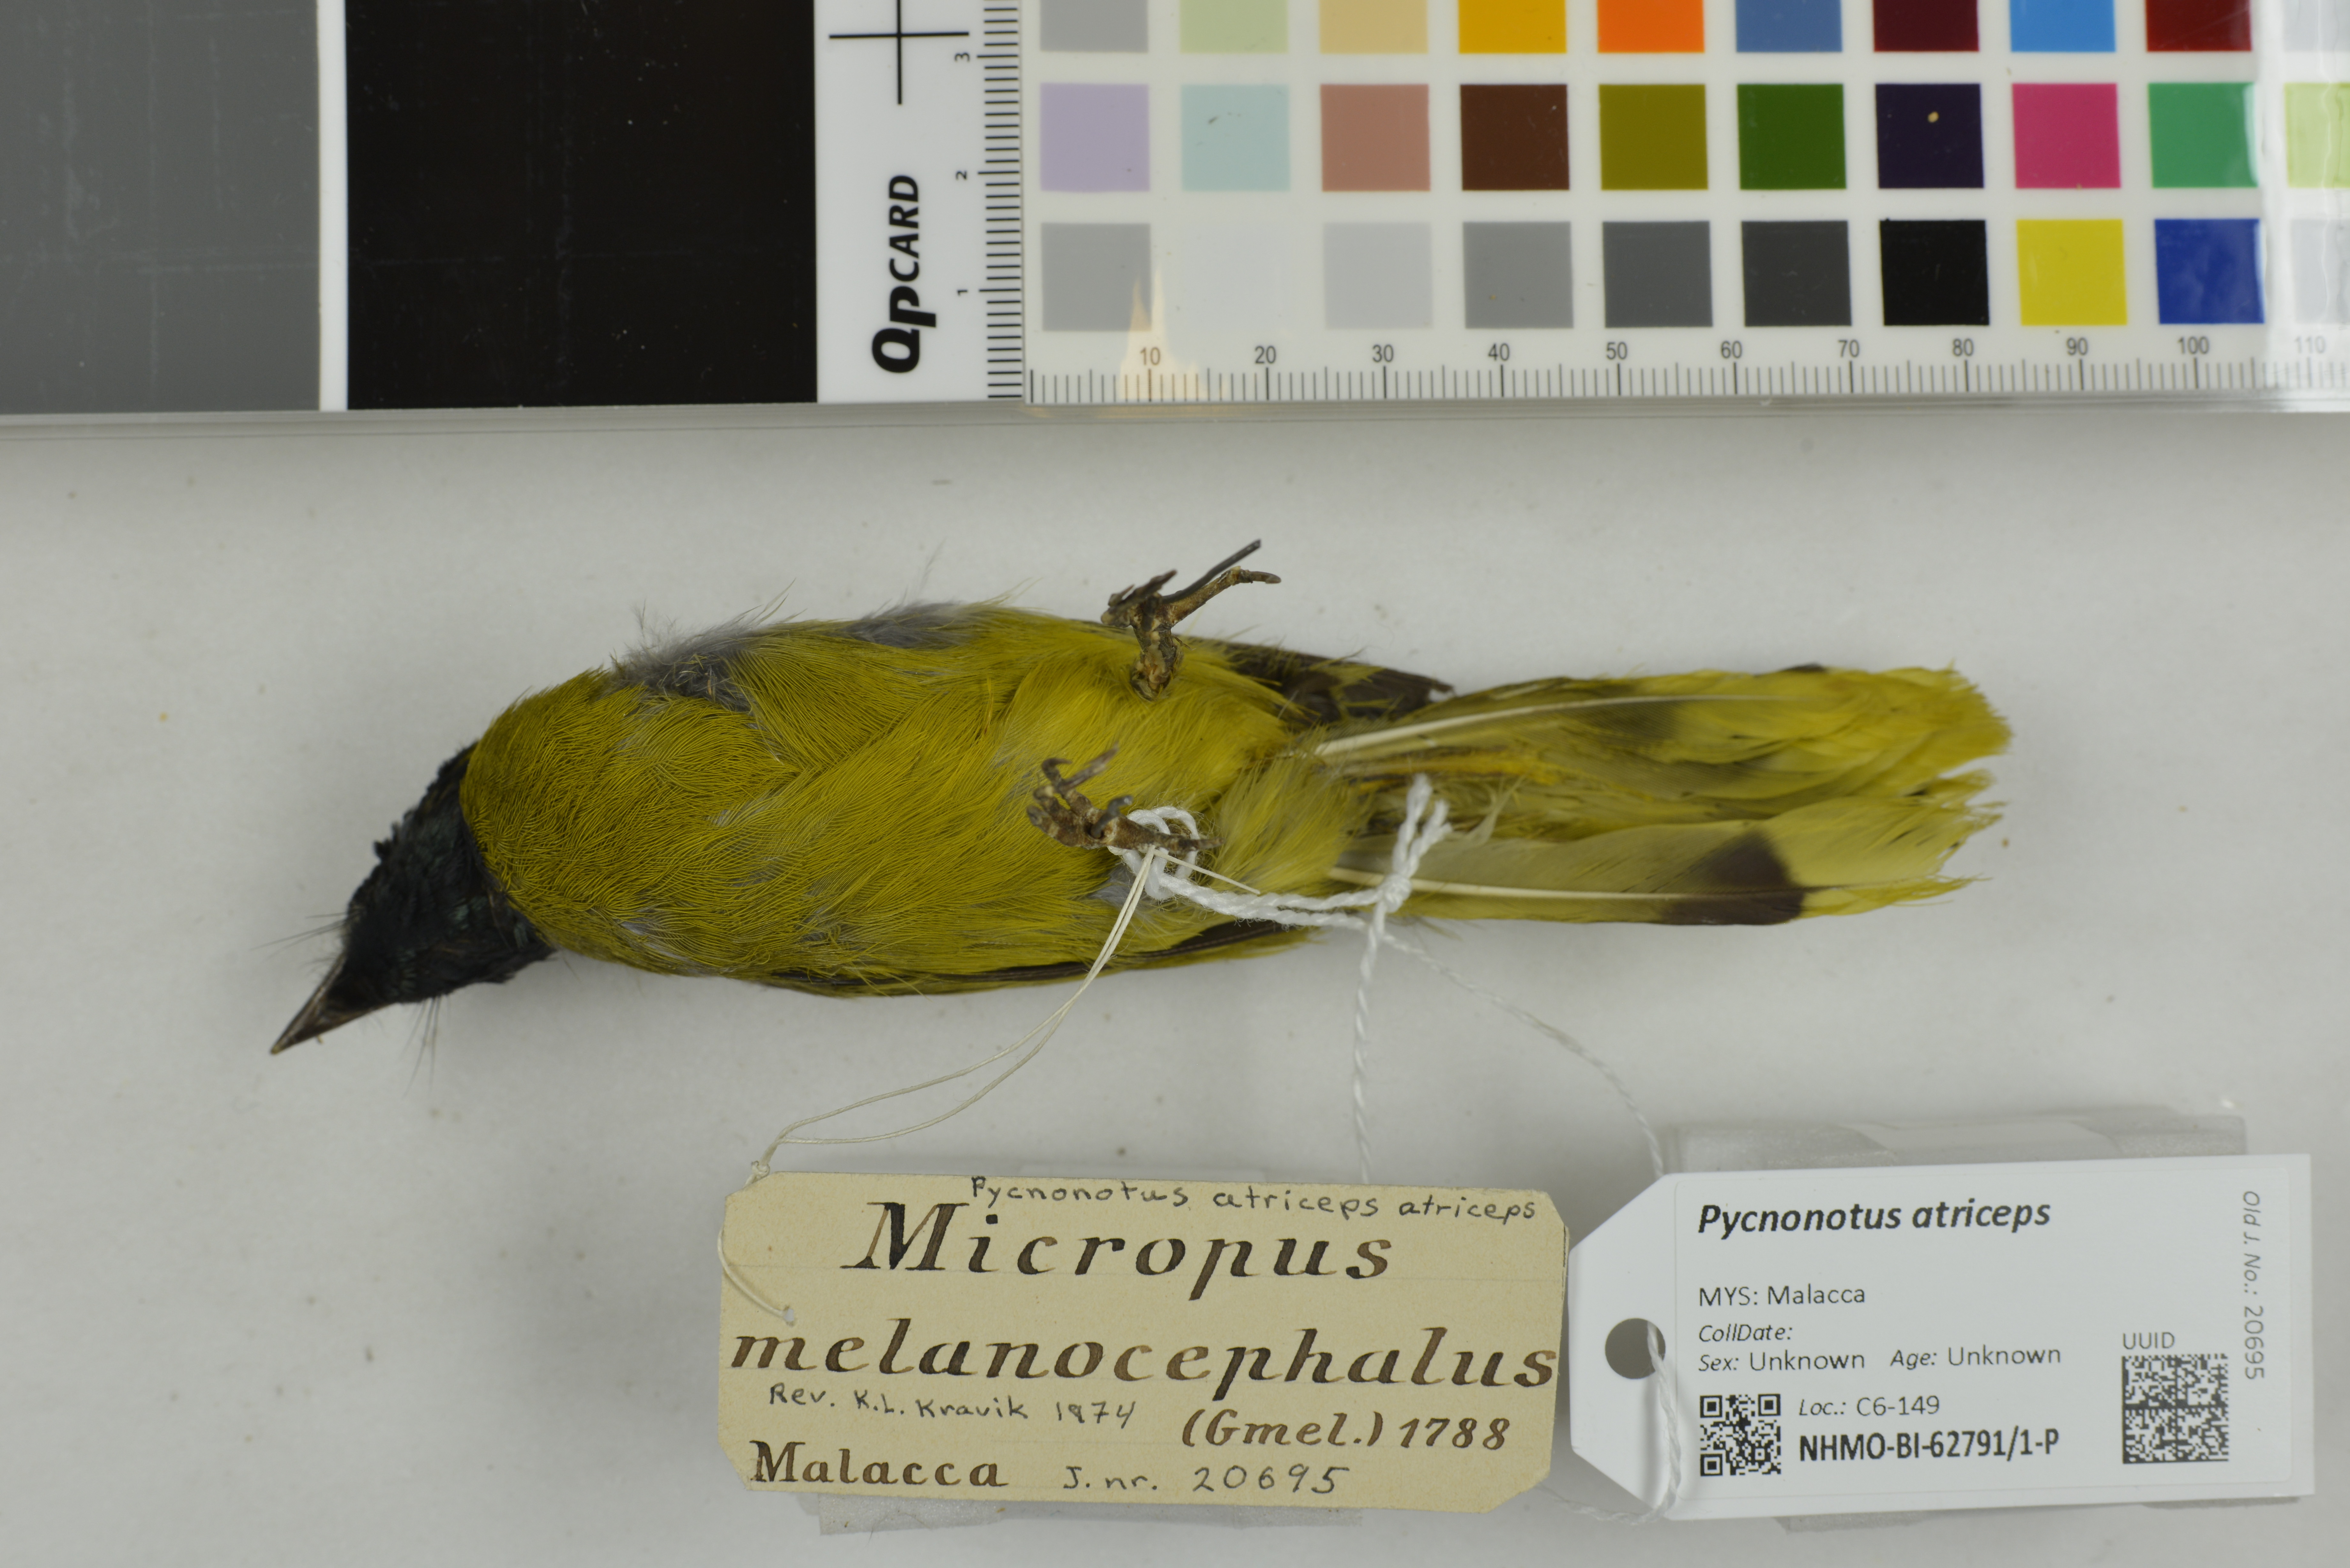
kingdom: Animalia
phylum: Chordata
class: Aves
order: Passeriformes
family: Pycnonotidae
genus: Brachypodius
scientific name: Brachypodius melanocephalos
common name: Black-headed bulbul
